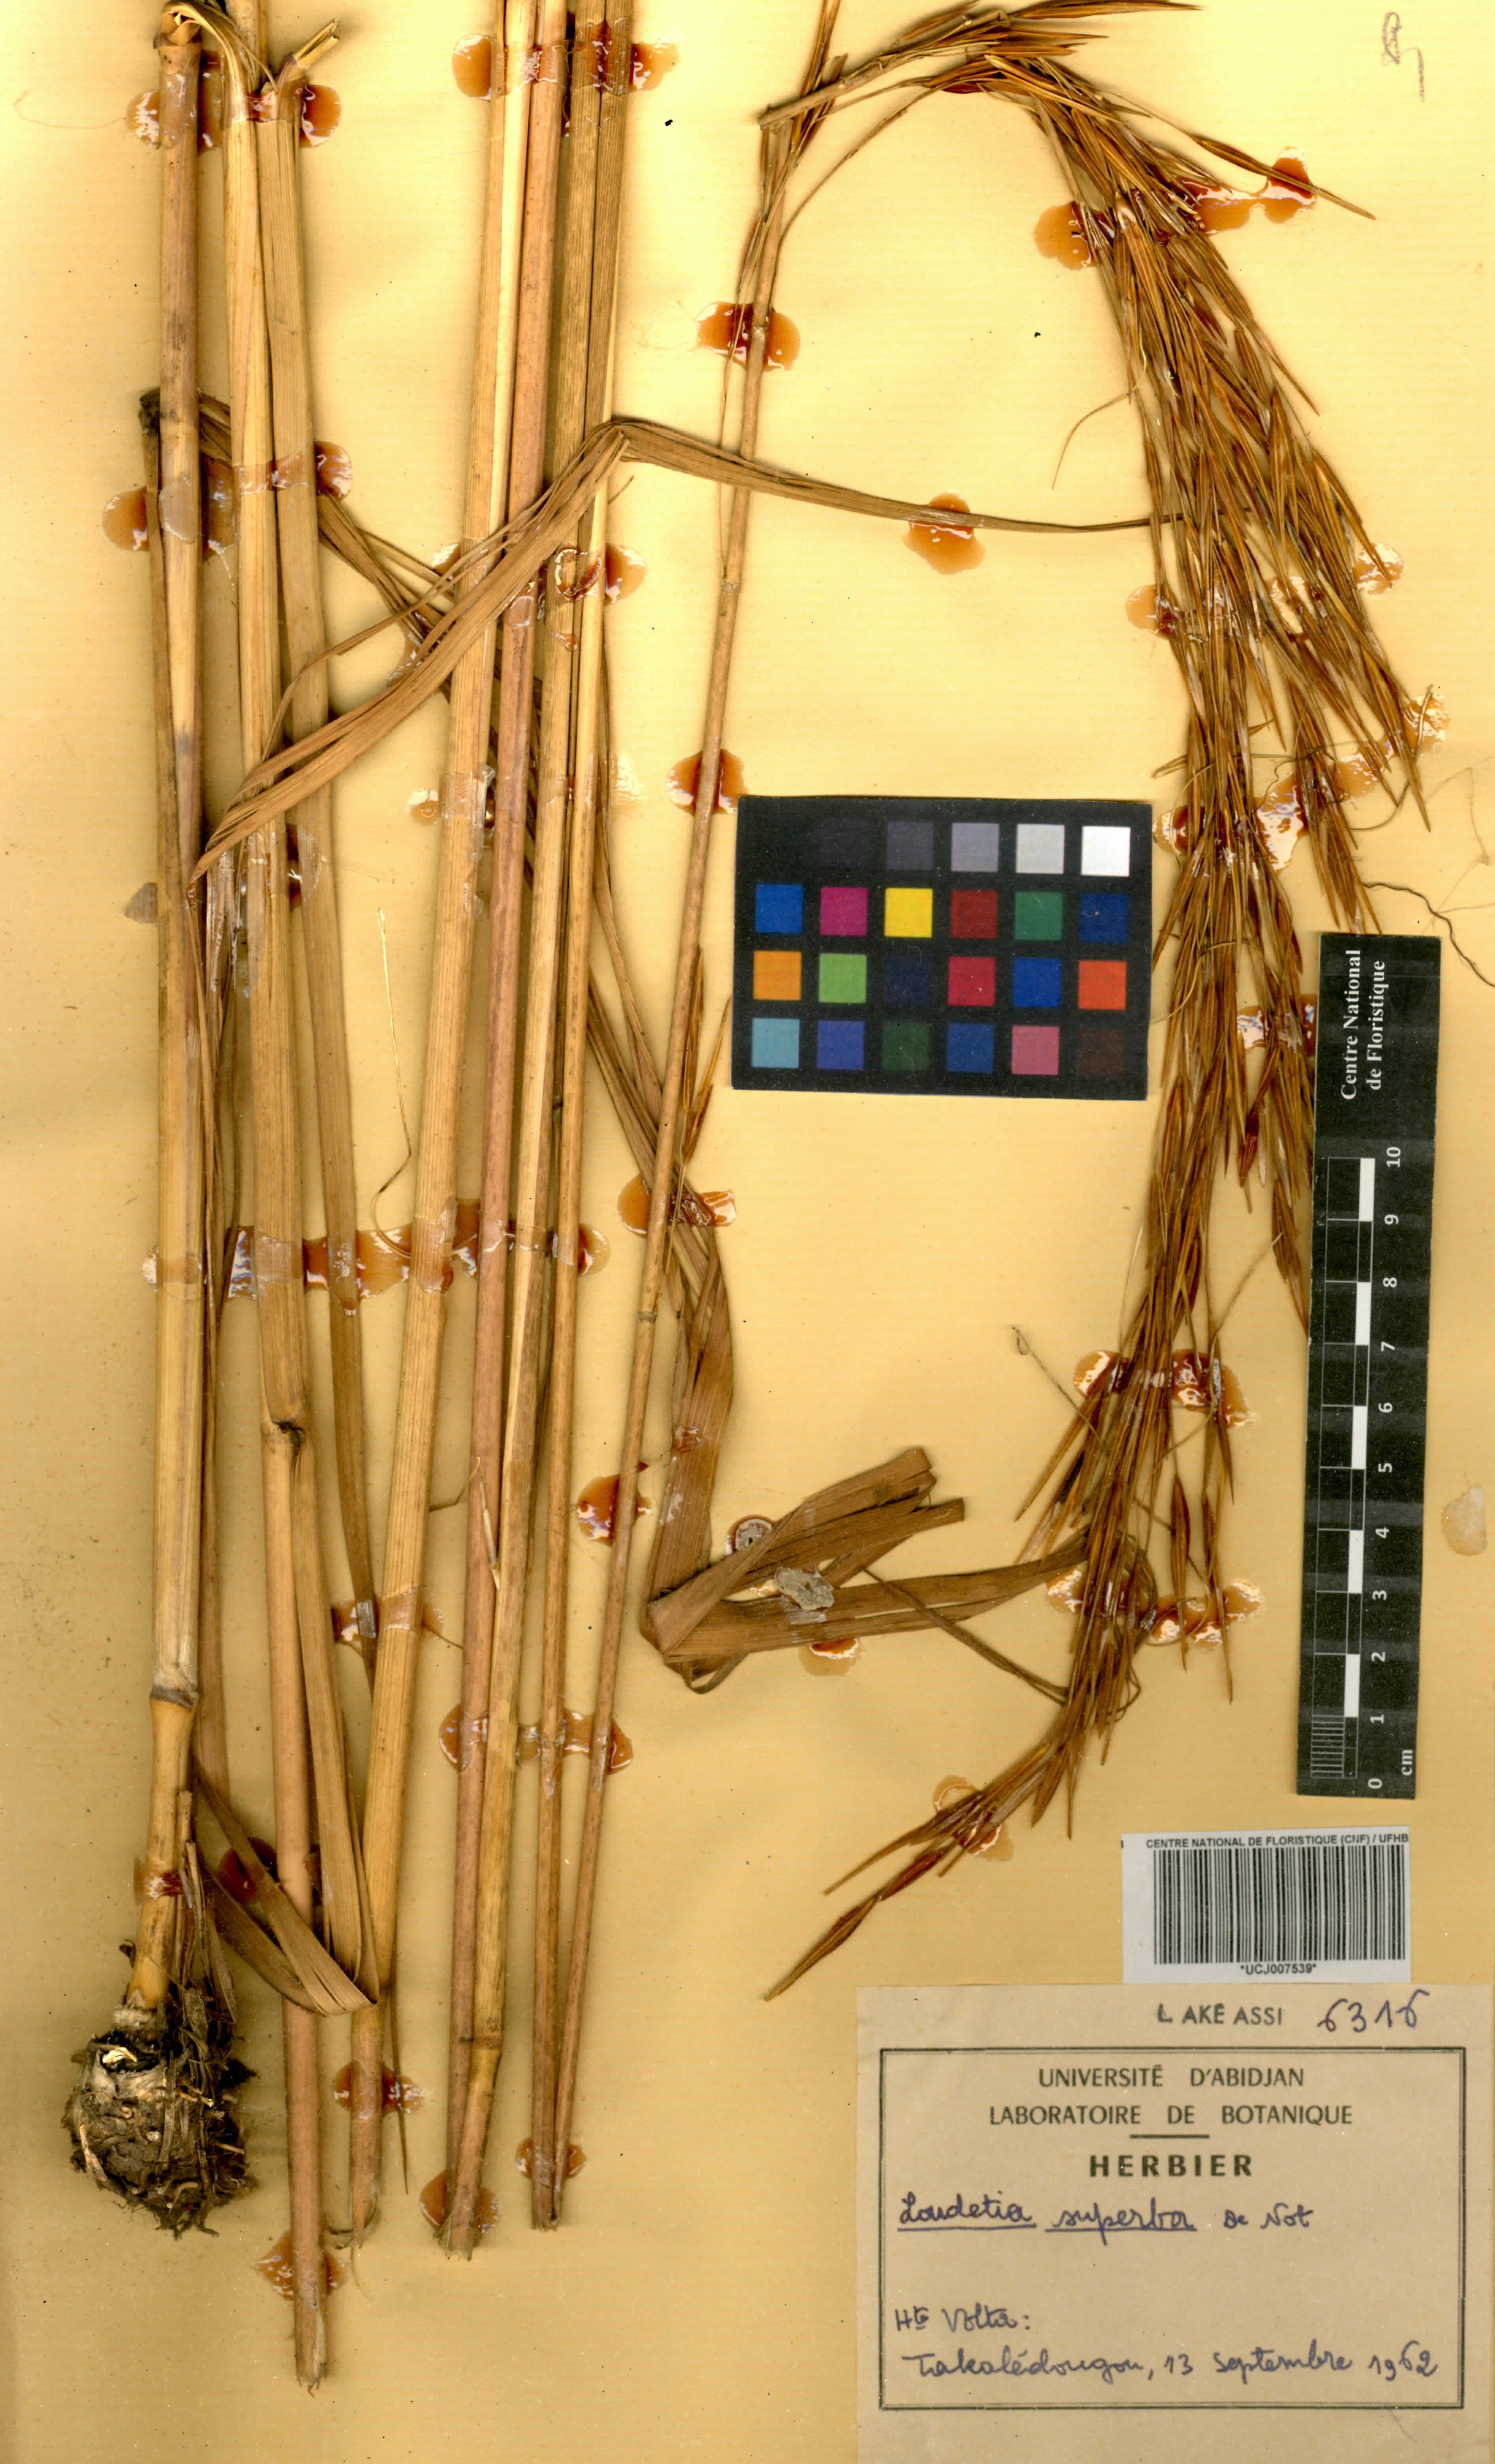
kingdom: Plantae
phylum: Tracheophyta
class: Liliopsida
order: Poales
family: Poaceae
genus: Tristachya
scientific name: Tristachya superba
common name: Giant trident grass
